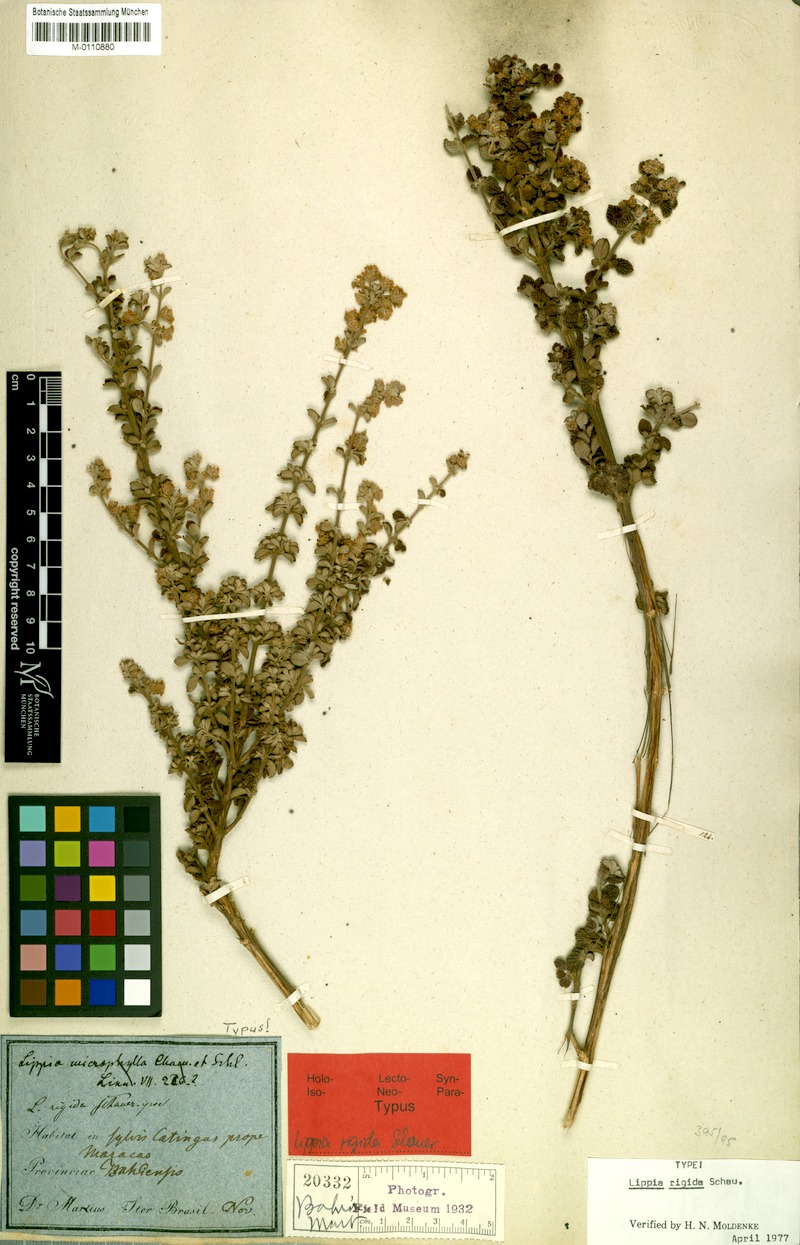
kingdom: Plantae
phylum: Tracheophyta
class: Magnoliopsida
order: Lamiales
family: Verbenaceae
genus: Lippia
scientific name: Lippia origanoides
